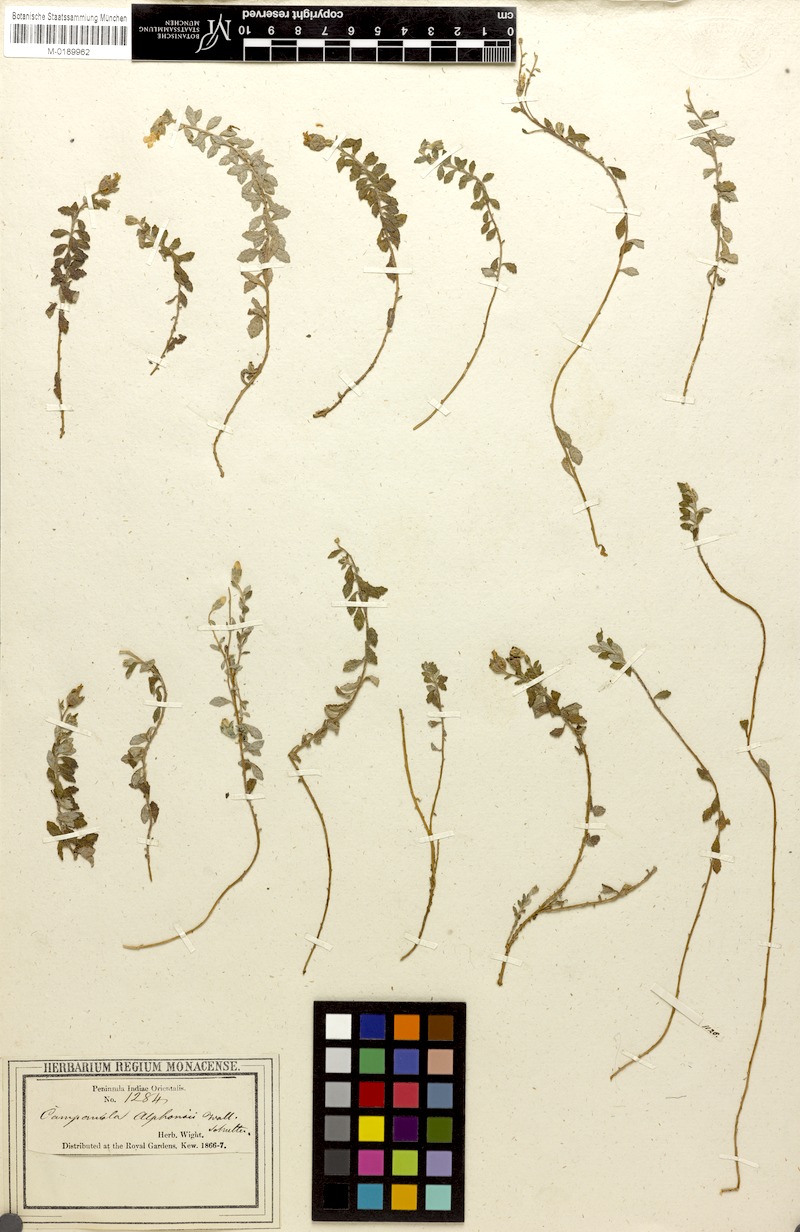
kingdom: Plantae
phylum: Tracheophyta
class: Magnoliopsida
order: Asterales
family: Campanulaceae
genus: Campanula
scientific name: Campanula alphonsii
